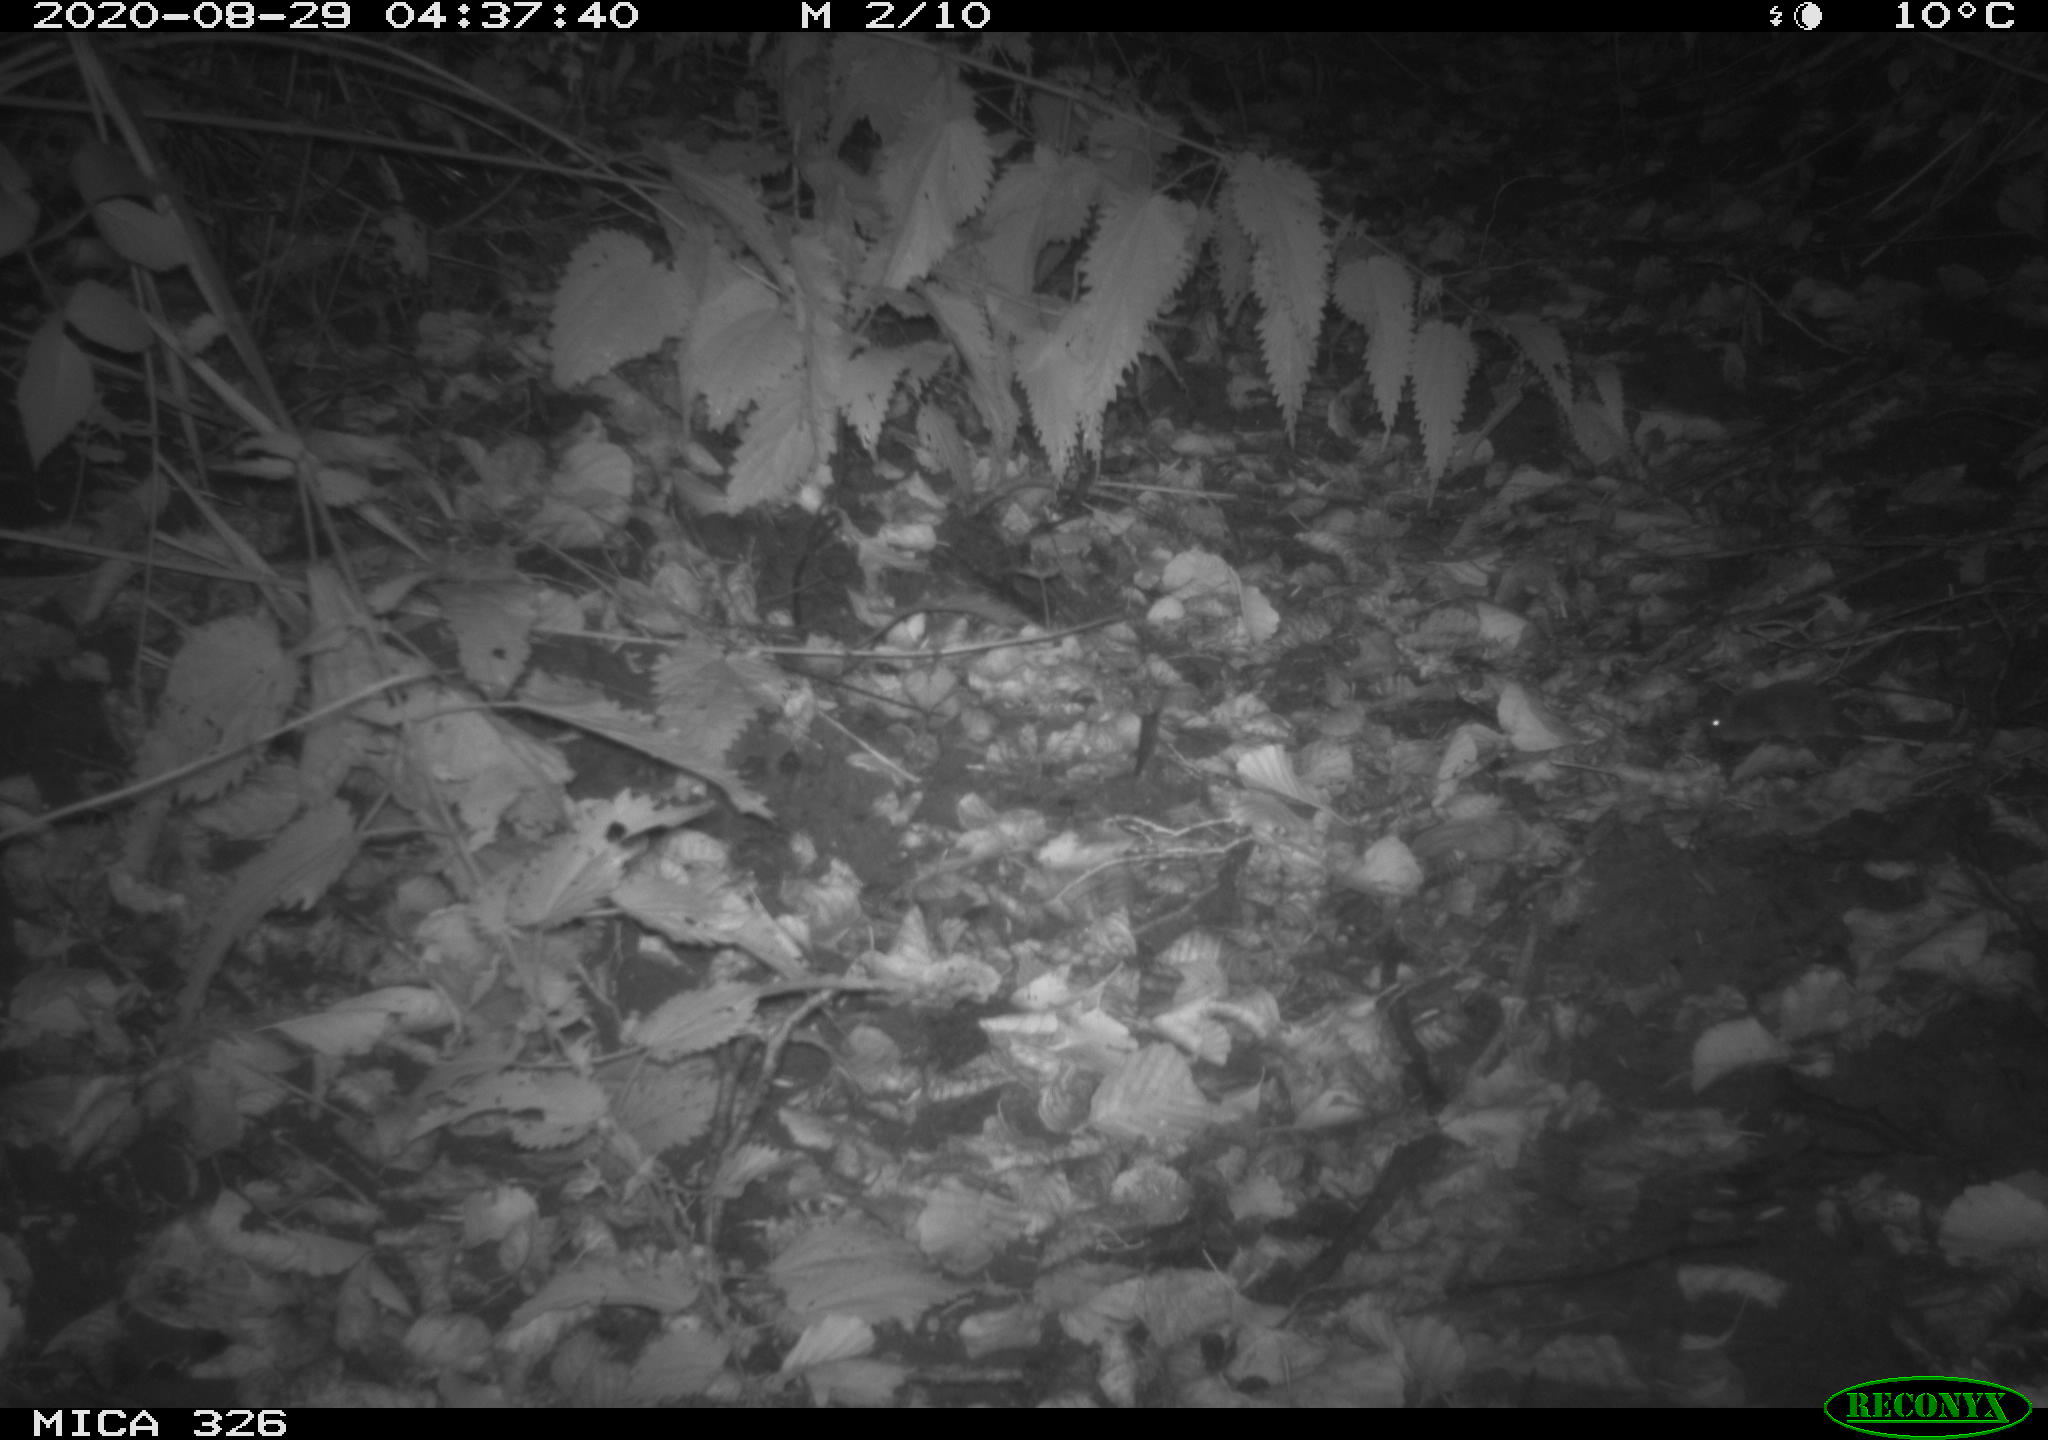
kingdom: Animalia
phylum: Chordata
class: Mammalia
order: Rodentia
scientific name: Rodentia
